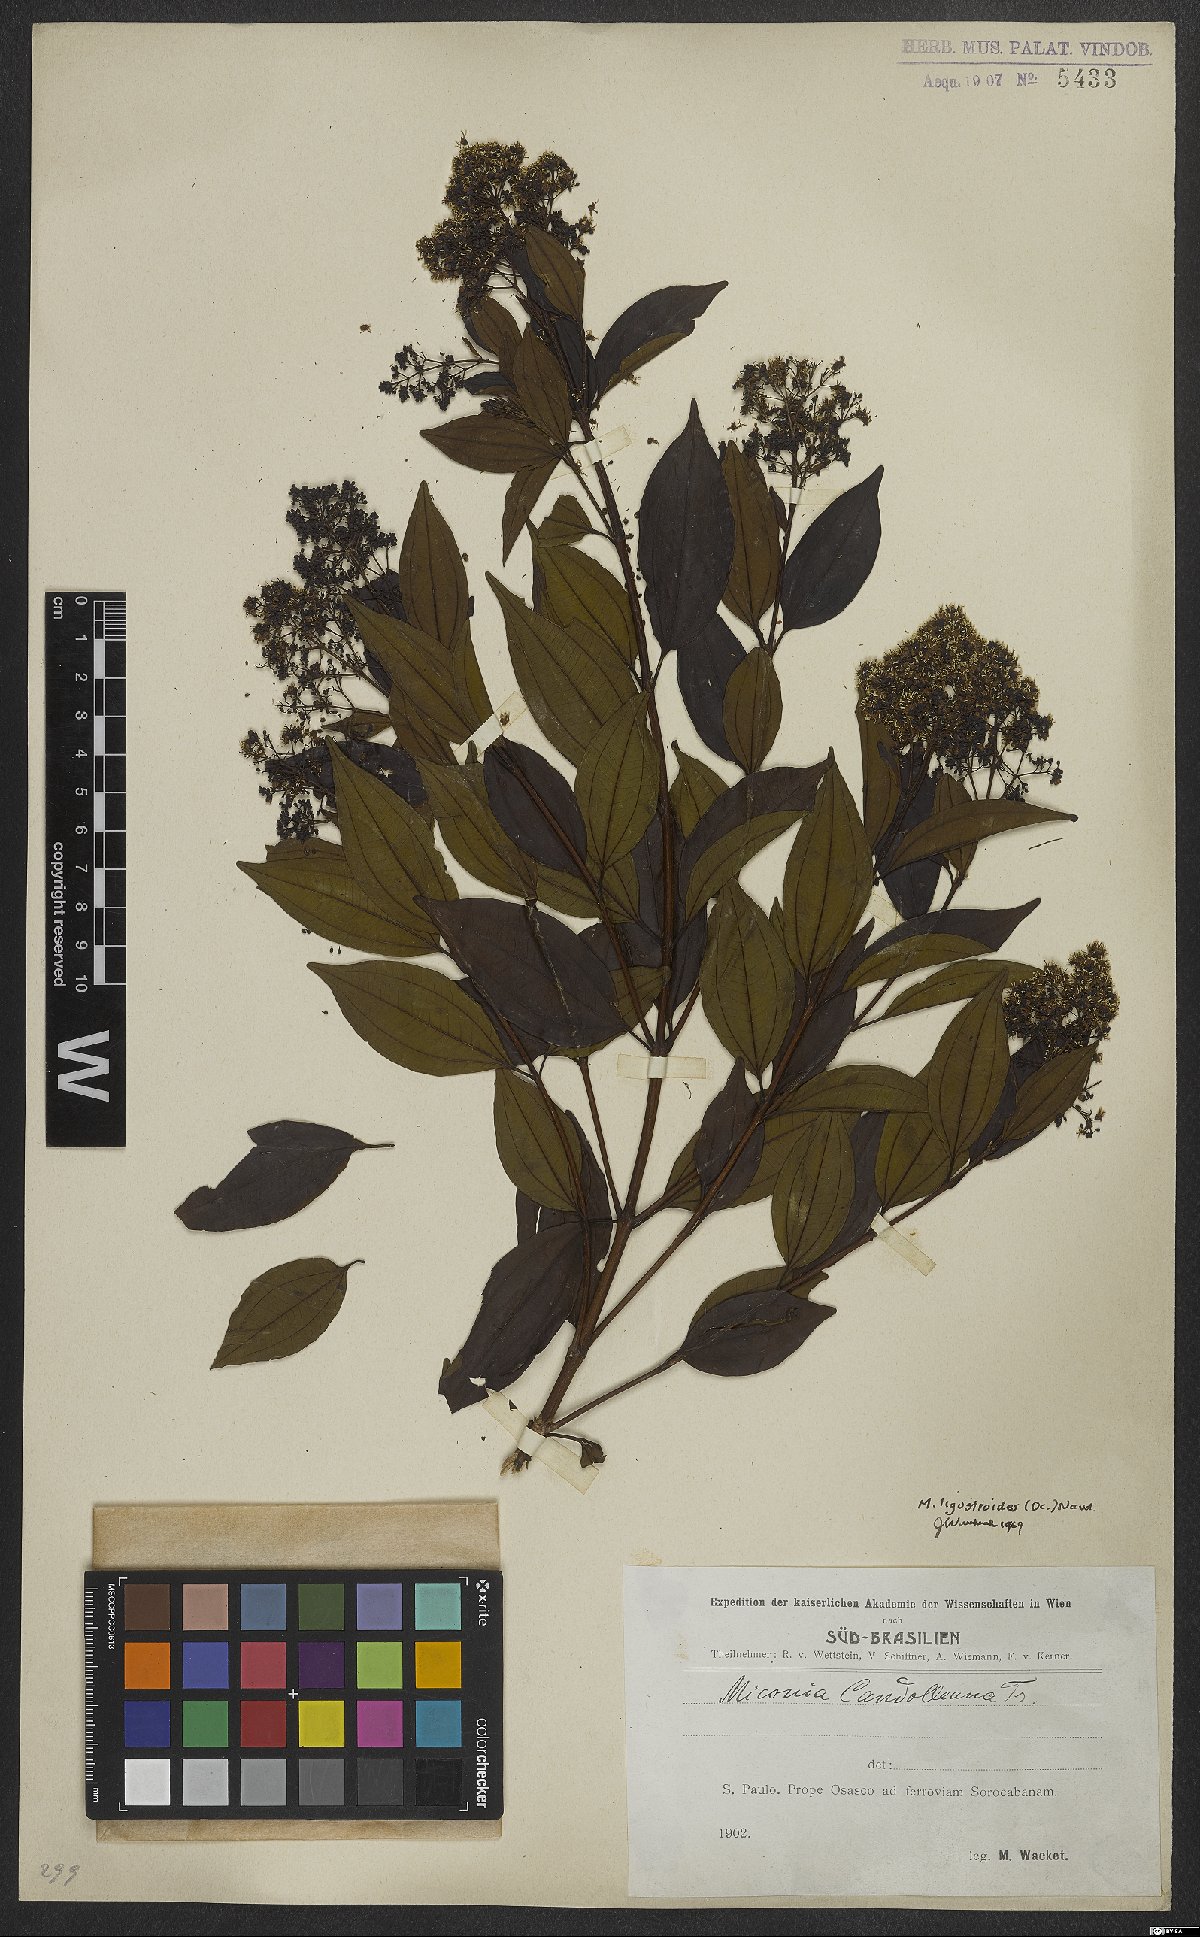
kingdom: Plantae
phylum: Tracheophyta
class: Magnoliopsida
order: Myrtales
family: Melastomataceae
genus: Miconia
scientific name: Miconia ligustroides
